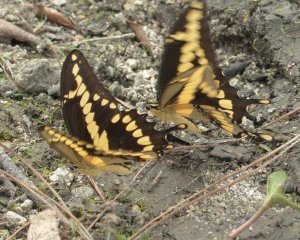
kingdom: Animalia
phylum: Arthropoda
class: Insecta
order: Lepidoptera
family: Papilionidae
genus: Papilio
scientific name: Papilio rumiko
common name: Western Giant Swallowtail
